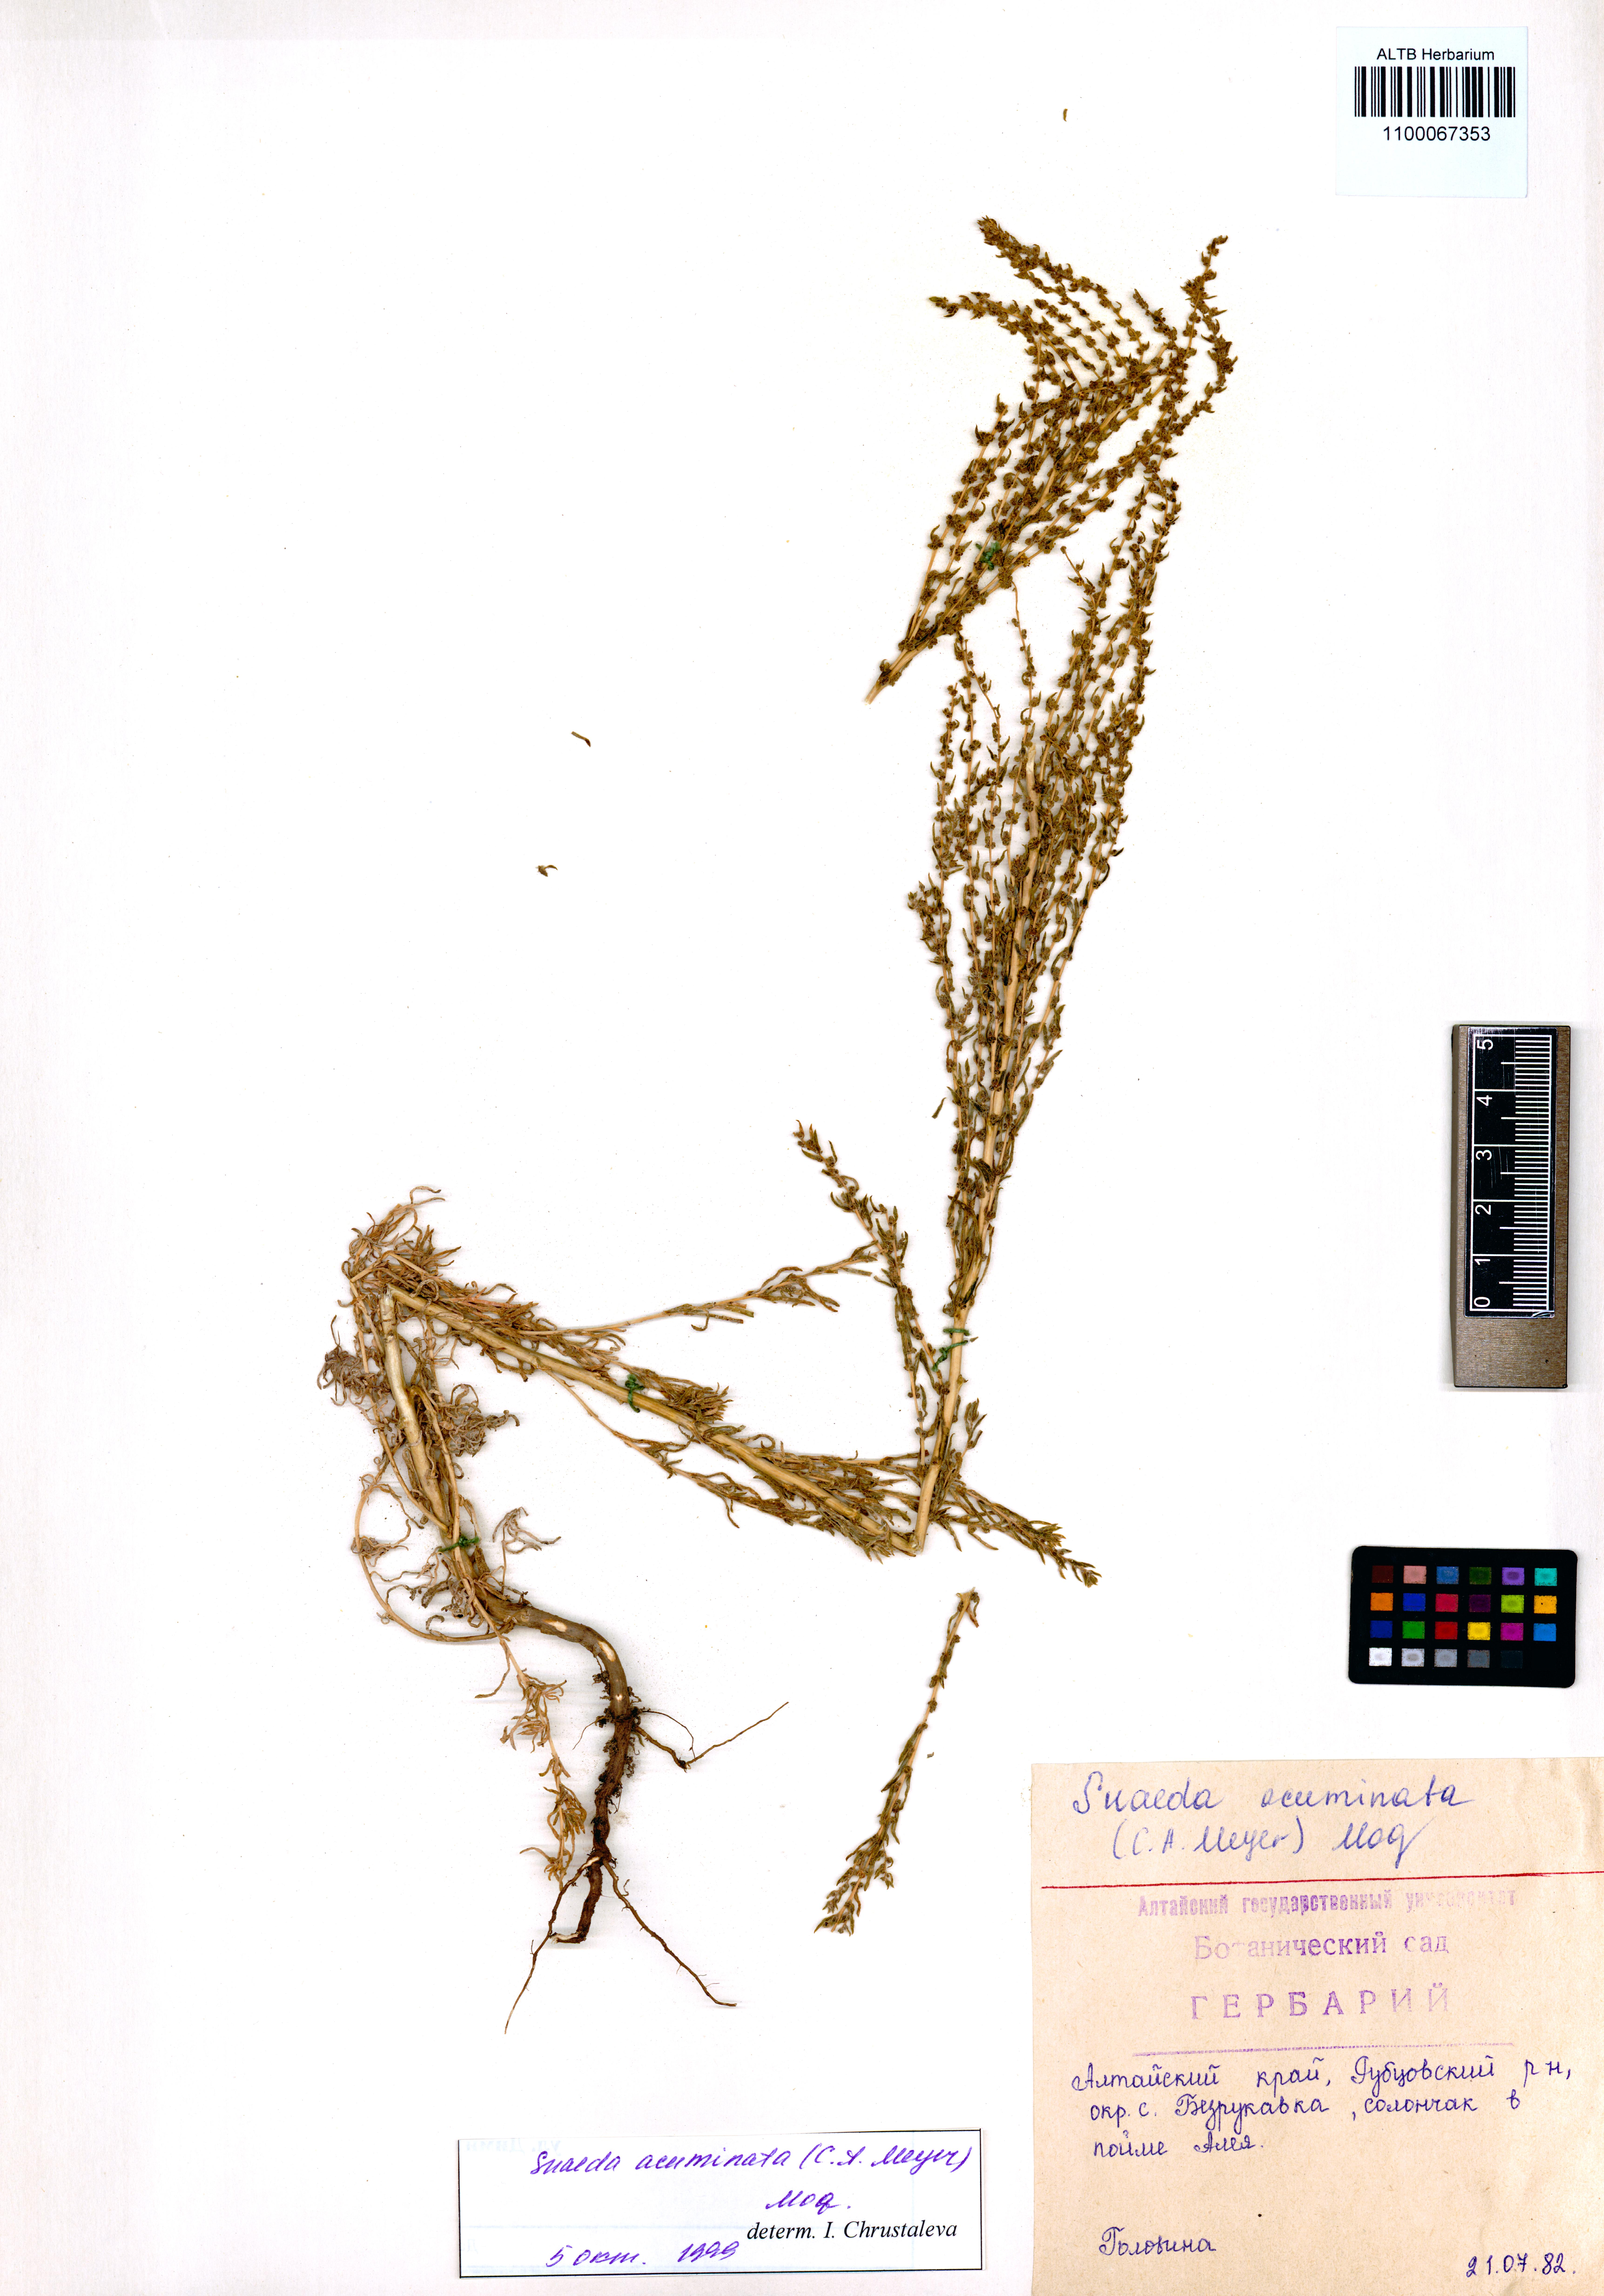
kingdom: Plantae
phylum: Tracheophyta
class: Magnoliopsida
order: Caryophyllales
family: Amaranthaceae
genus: Suaeda
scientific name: Suaeda acuminata
